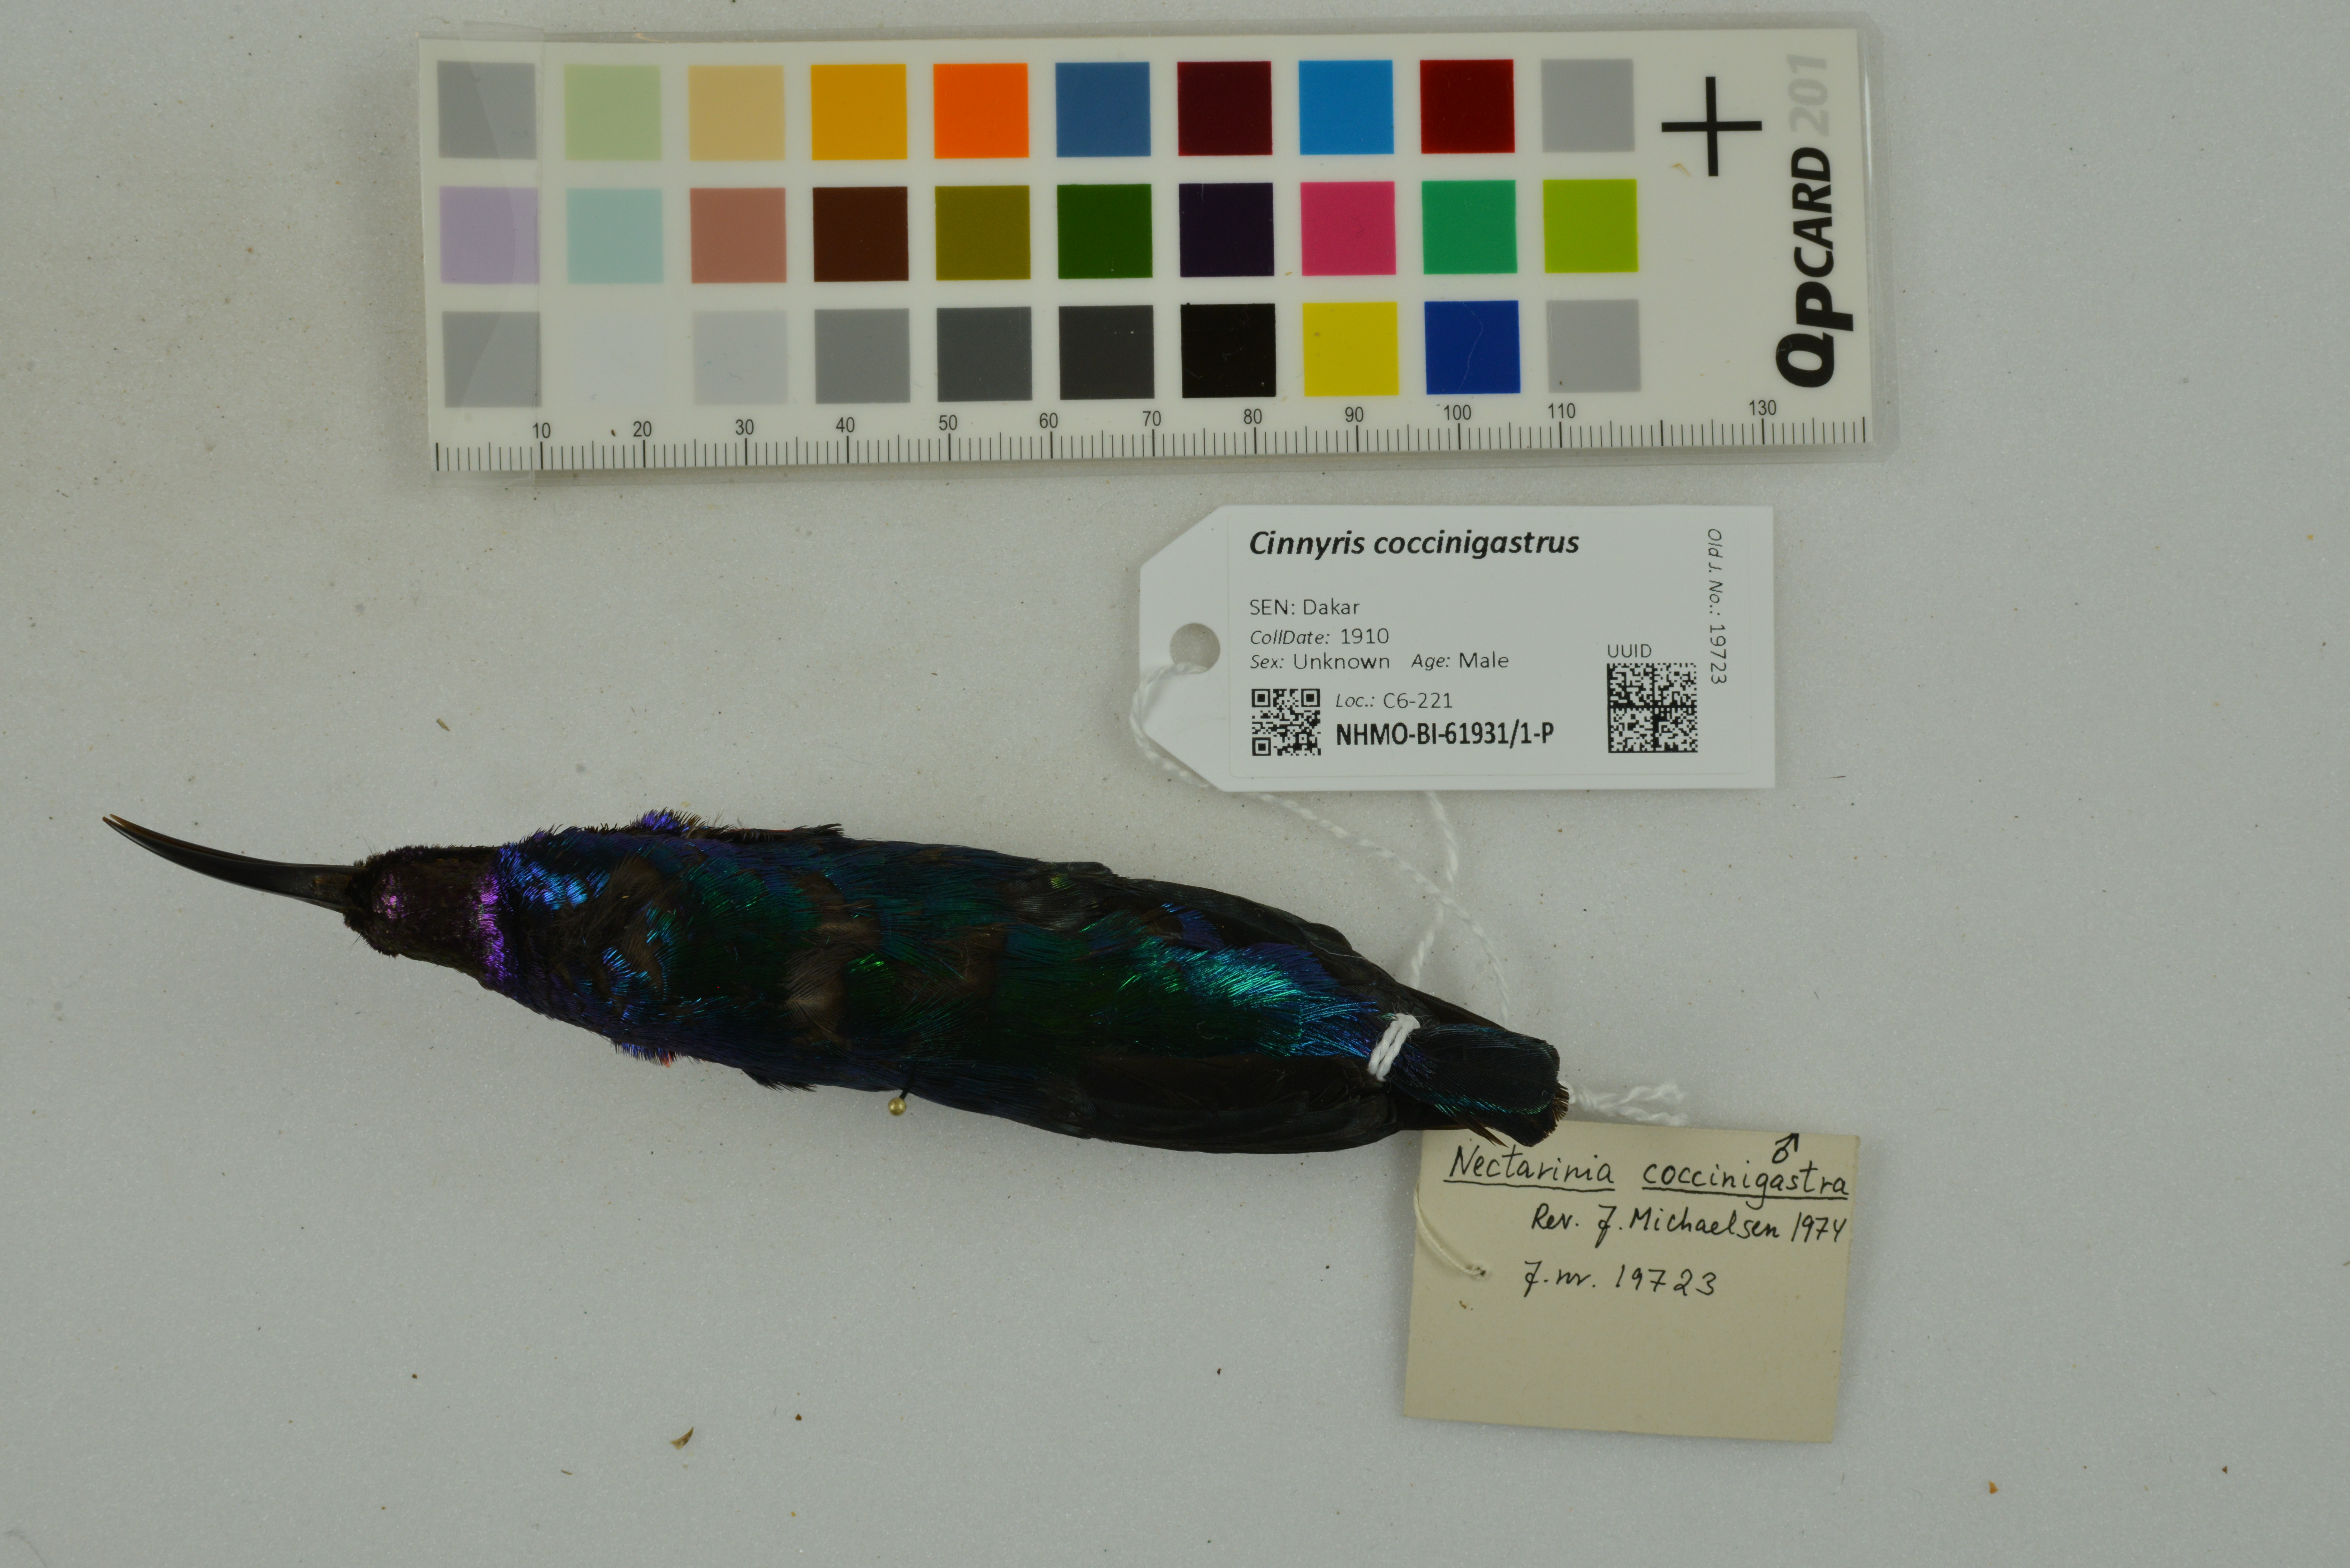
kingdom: Animalia
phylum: Chordata
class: Aves
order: Passeriformes
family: Nectariniidae
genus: Cinnyris
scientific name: Cinnyris coccinigastrus
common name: Splendid sunbird
